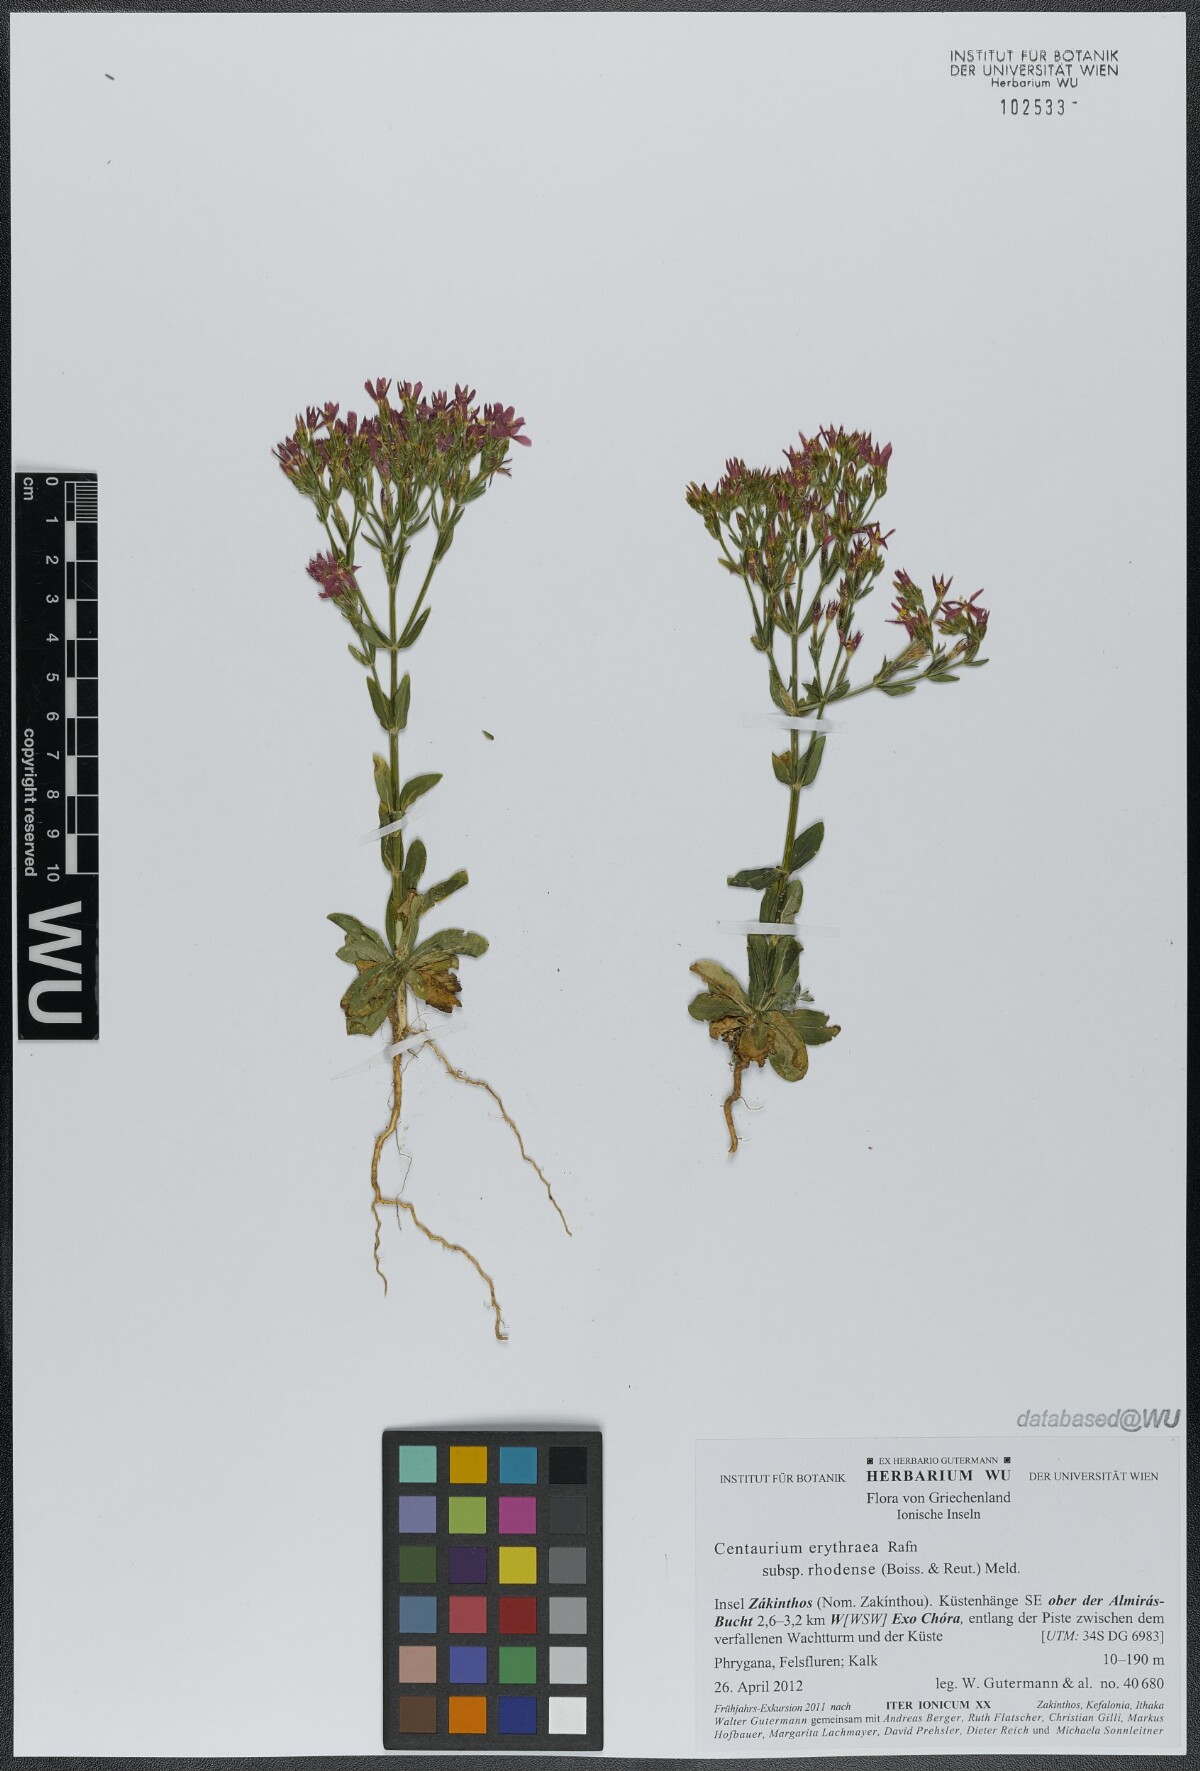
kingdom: Plantae
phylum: Tracheophyta
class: Magnoliopsida
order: Gentianales
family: Gentianaceae
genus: Centaurium
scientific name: Centaurium erythraea
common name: Common centaury
